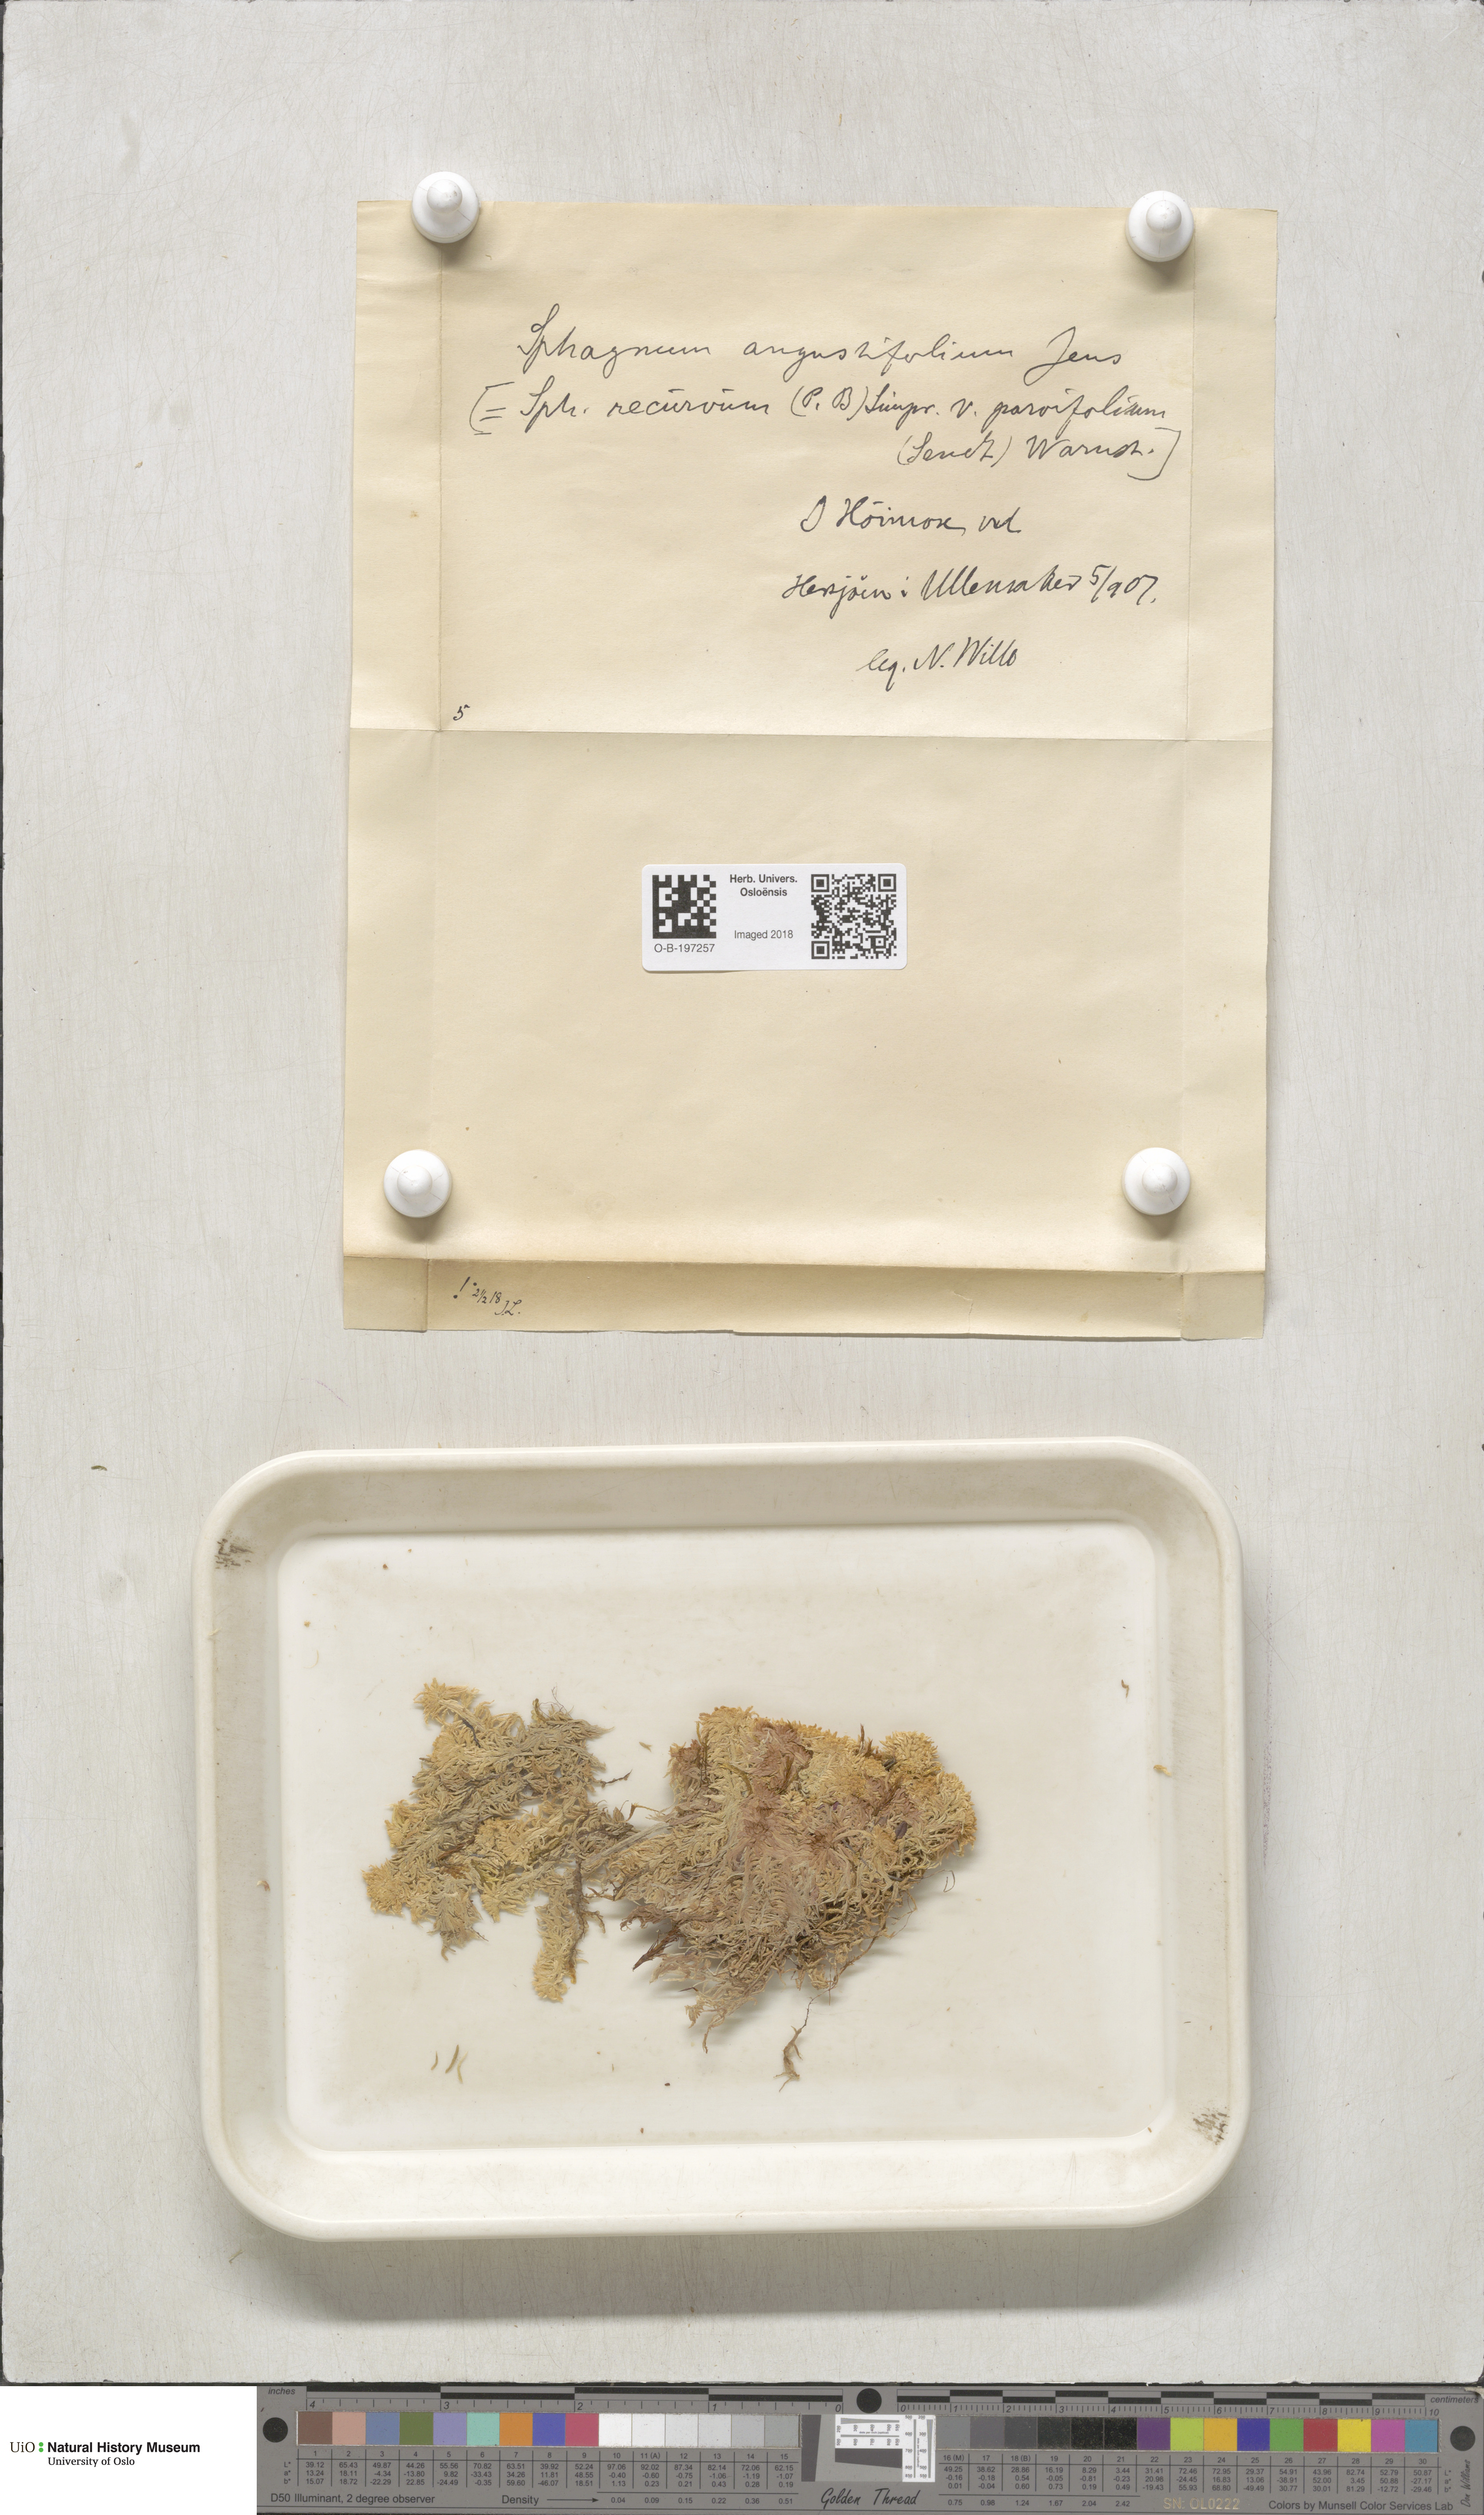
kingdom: Plantae
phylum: Bryophyta
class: Sphagnopsida
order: Sphagnales
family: Sphagnaceae
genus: Sphagnum
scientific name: Sphagnum angustifolium
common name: Narrow-leaved peat moss
